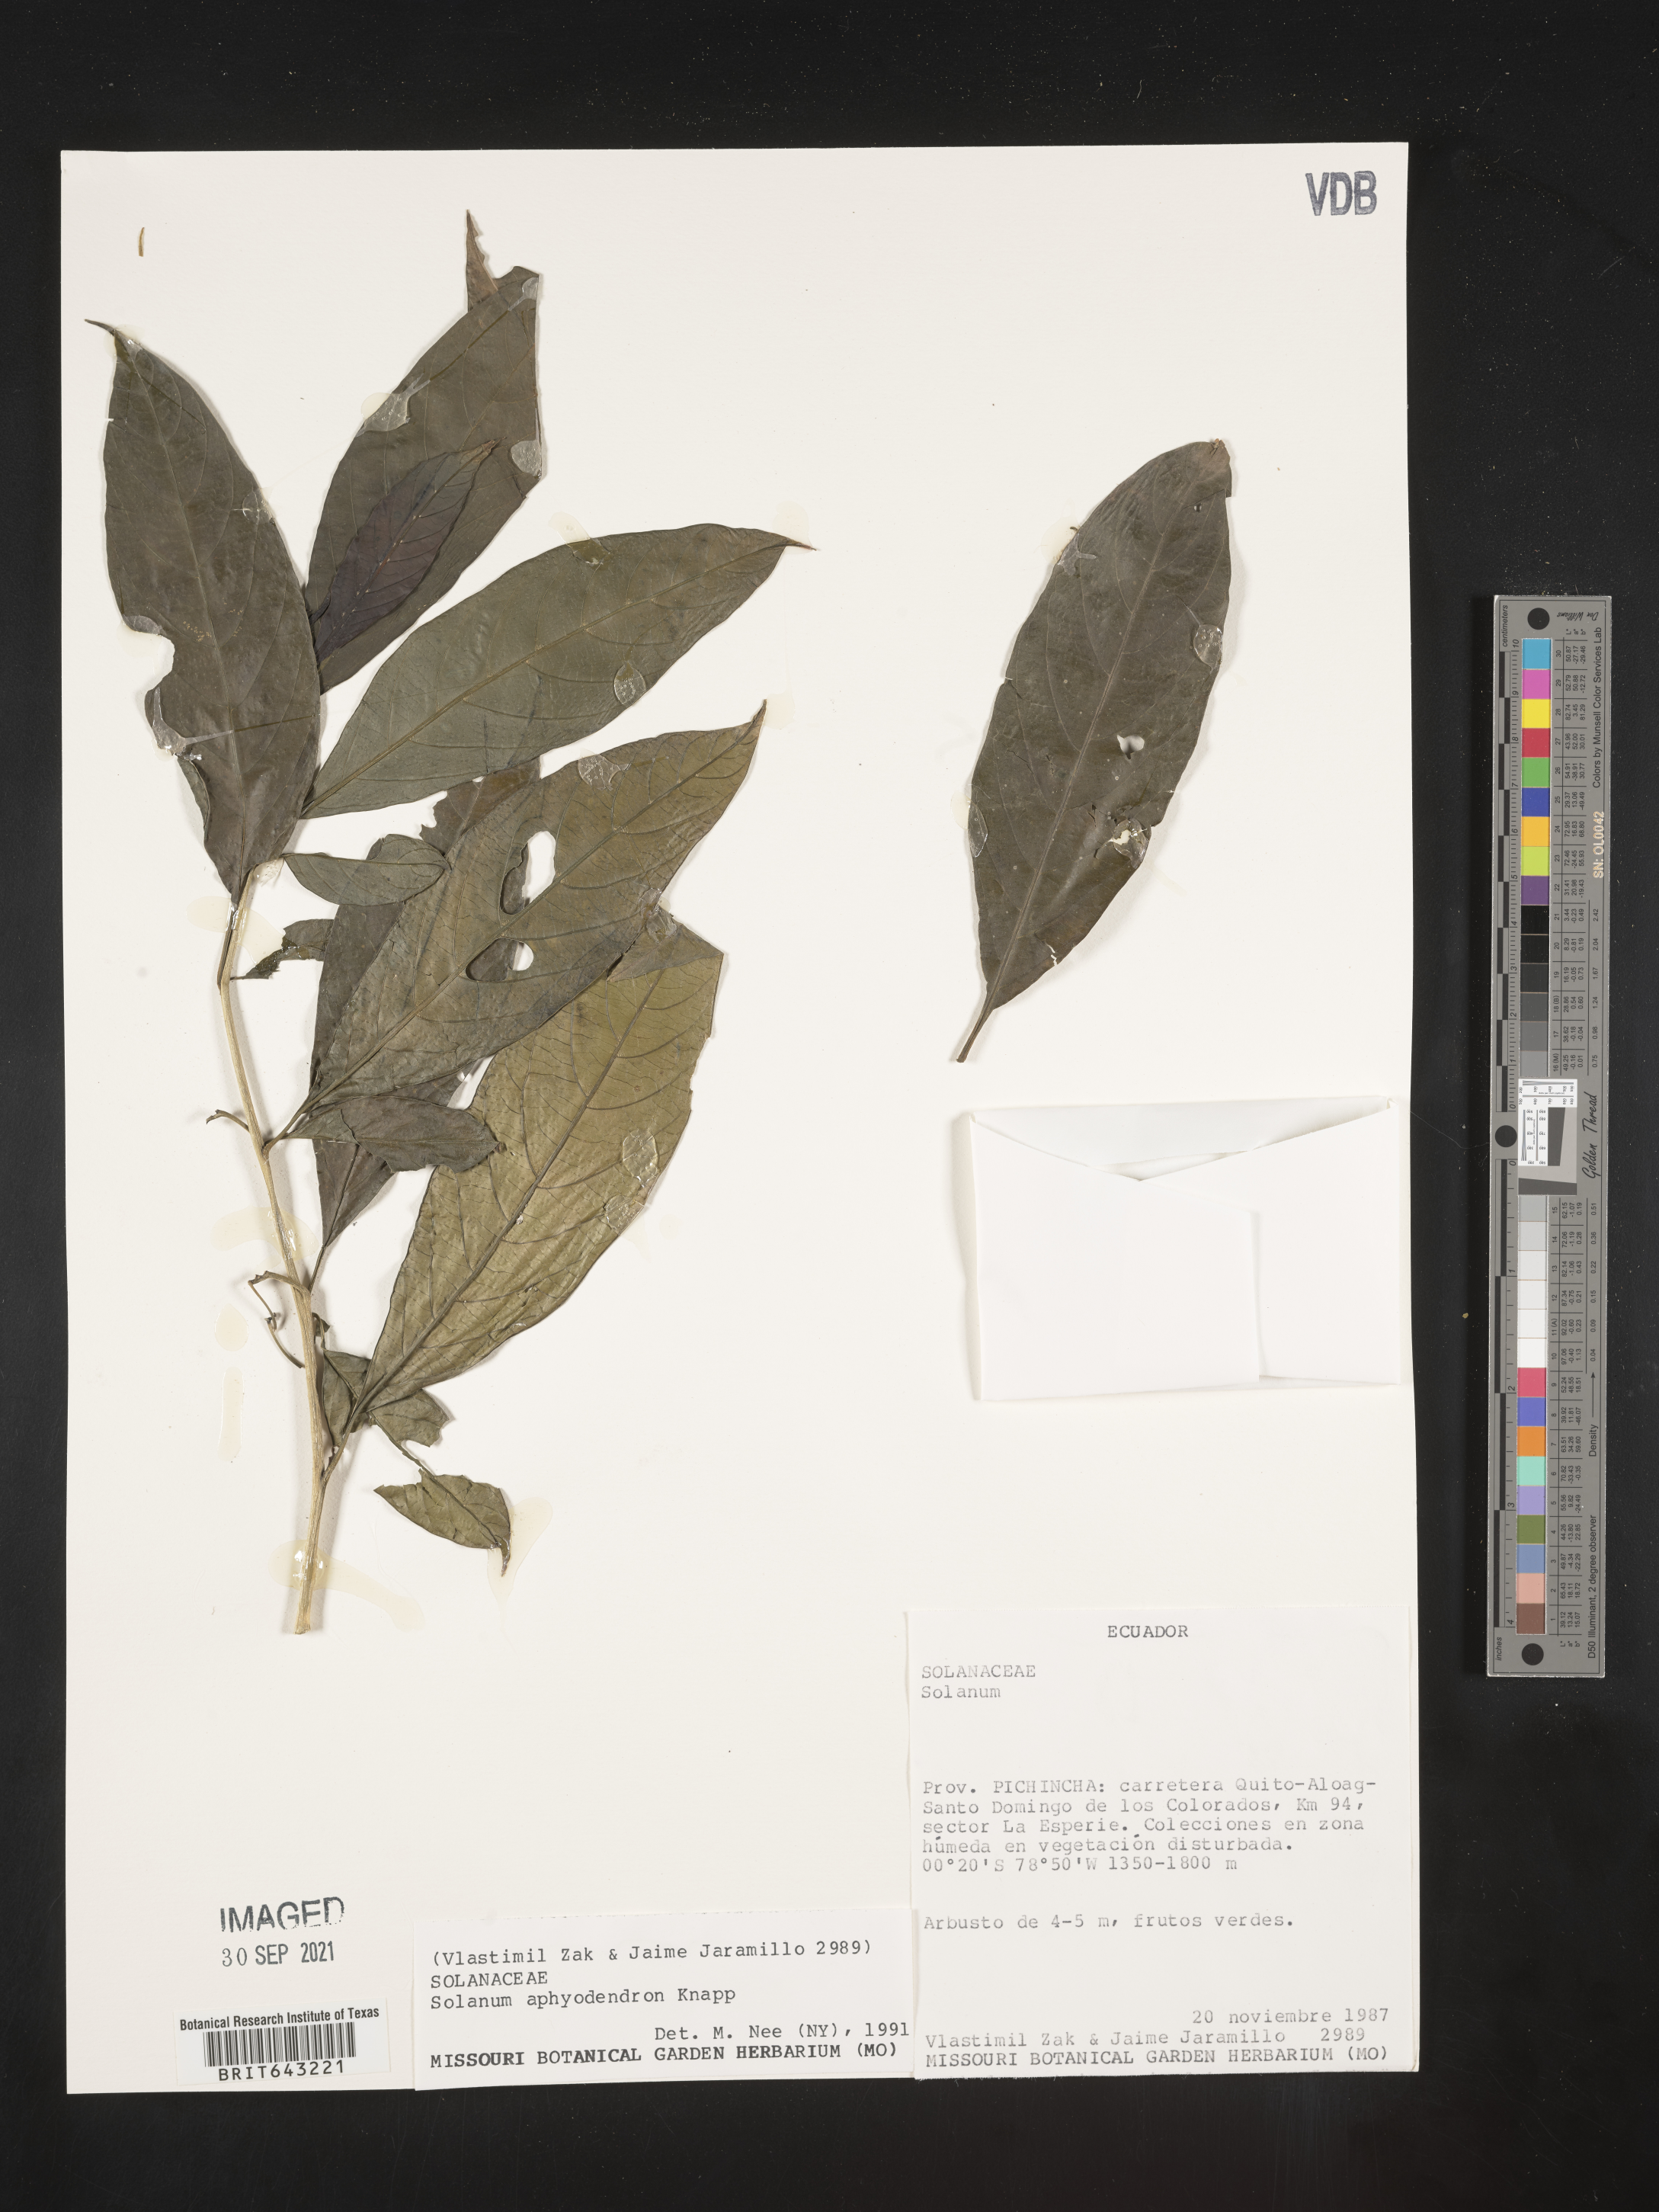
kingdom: Plantae
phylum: Tracheophyta
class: Magnoliopsida
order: Solanales
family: Solanaceae
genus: Solanum
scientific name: Solanum
